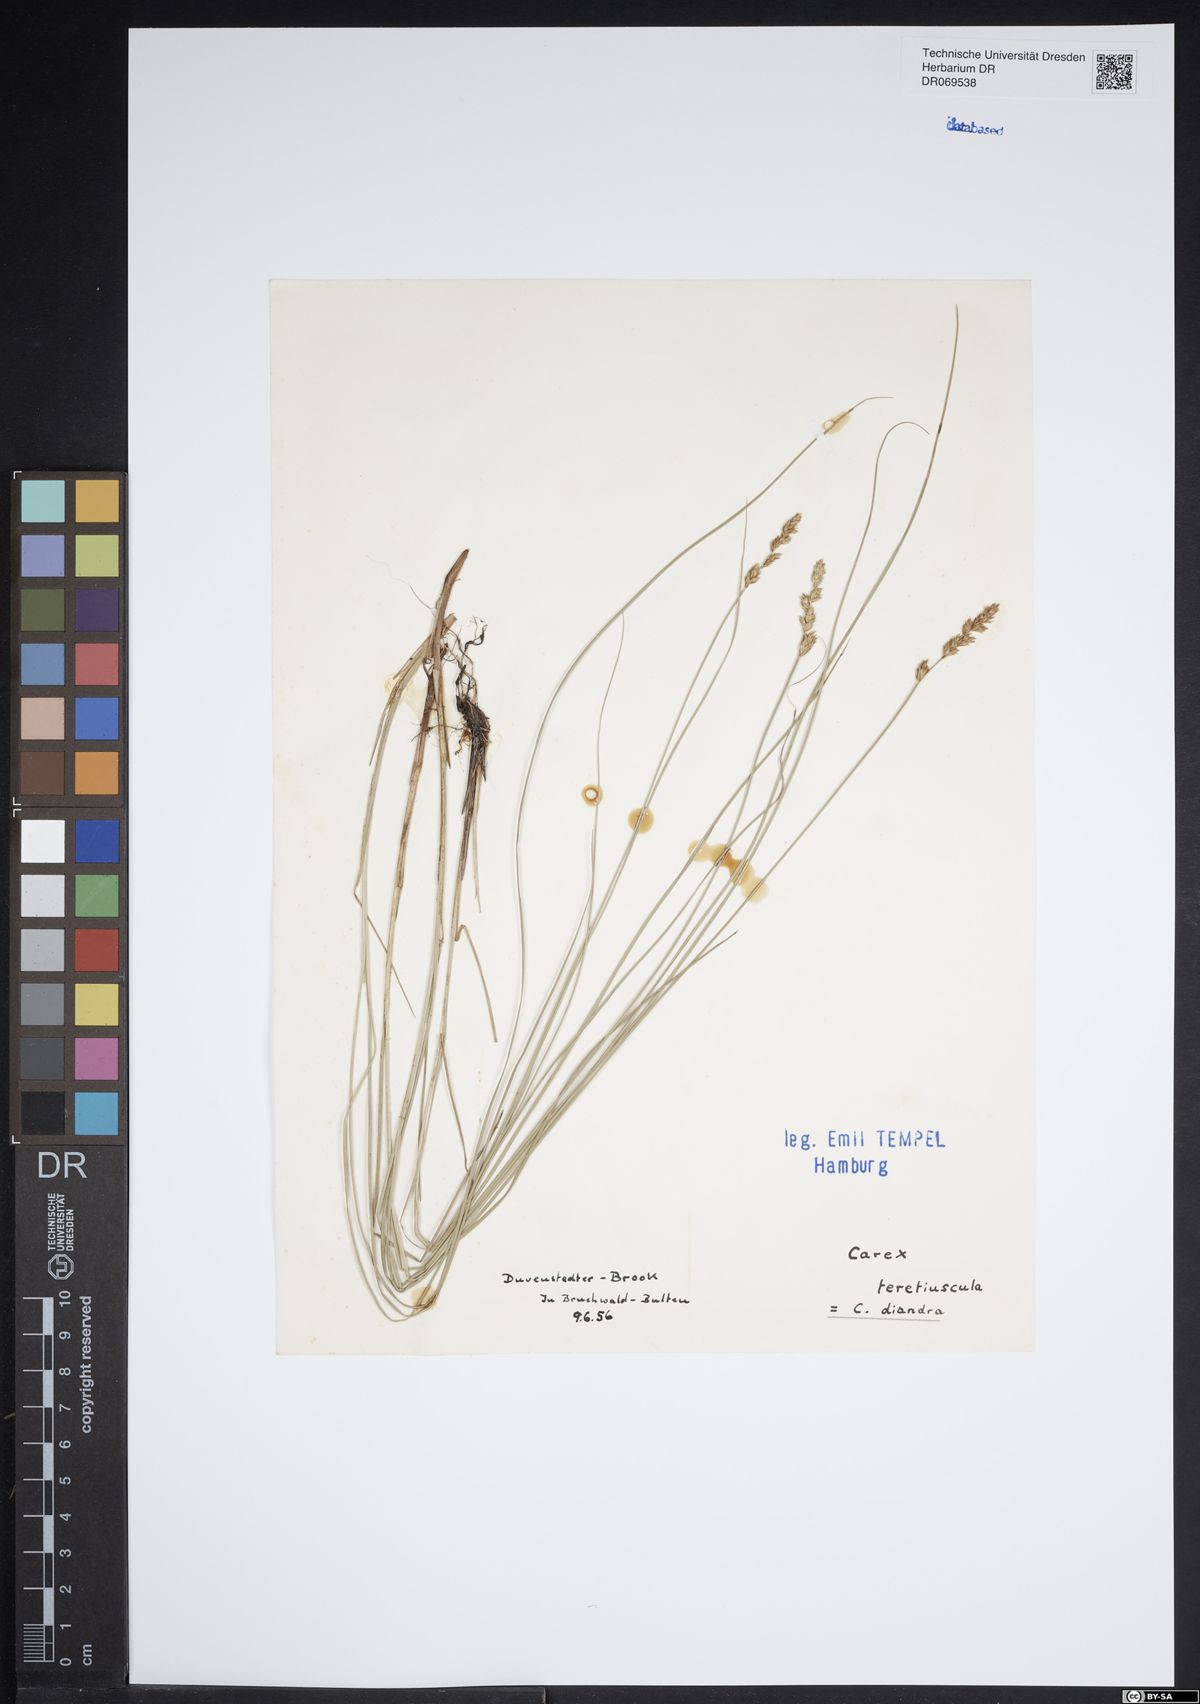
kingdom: Plantae
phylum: Tracheophyta
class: Liliopsida
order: Poales
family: Cyperaceae
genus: Carex
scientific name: Carex diandra
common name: Lesser tussock-sedge
